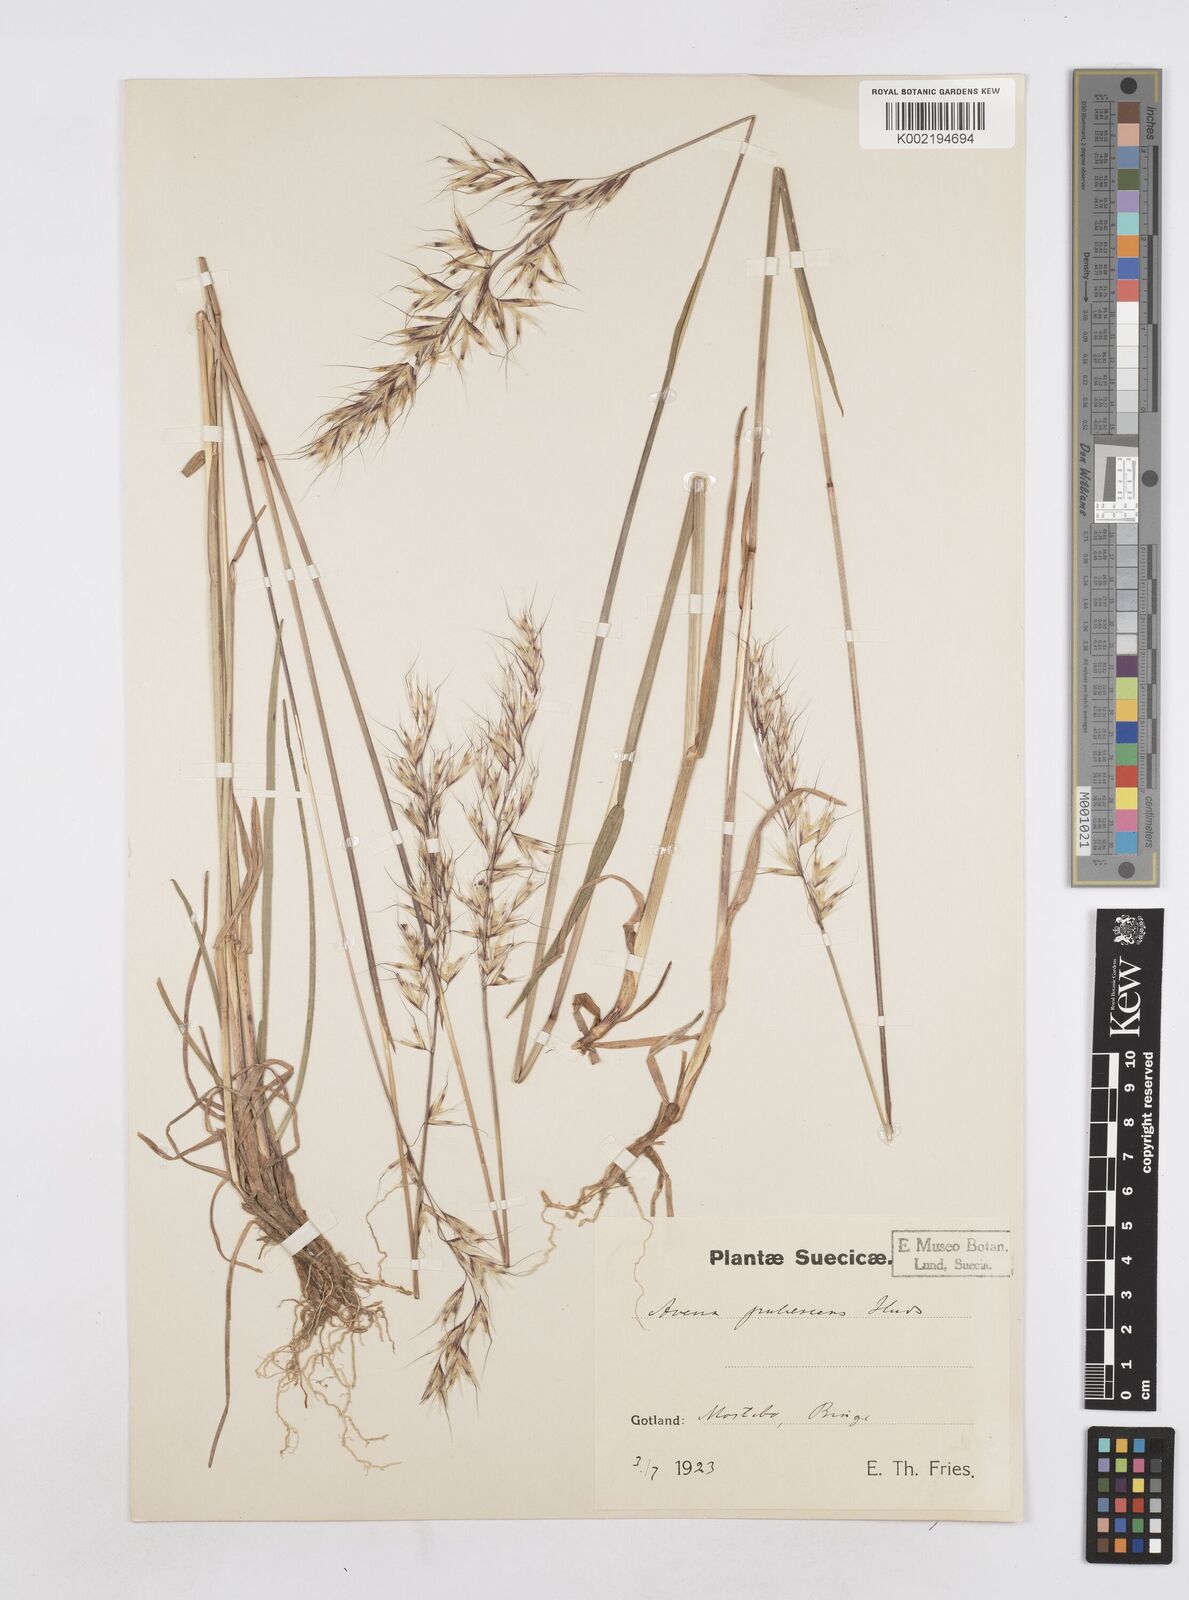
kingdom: Plantae
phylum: Tracheophyta
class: Liliopsida
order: Poales
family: Poaceae
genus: Avenula
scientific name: Avenula pubescens
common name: Downy alpine oatgrass
